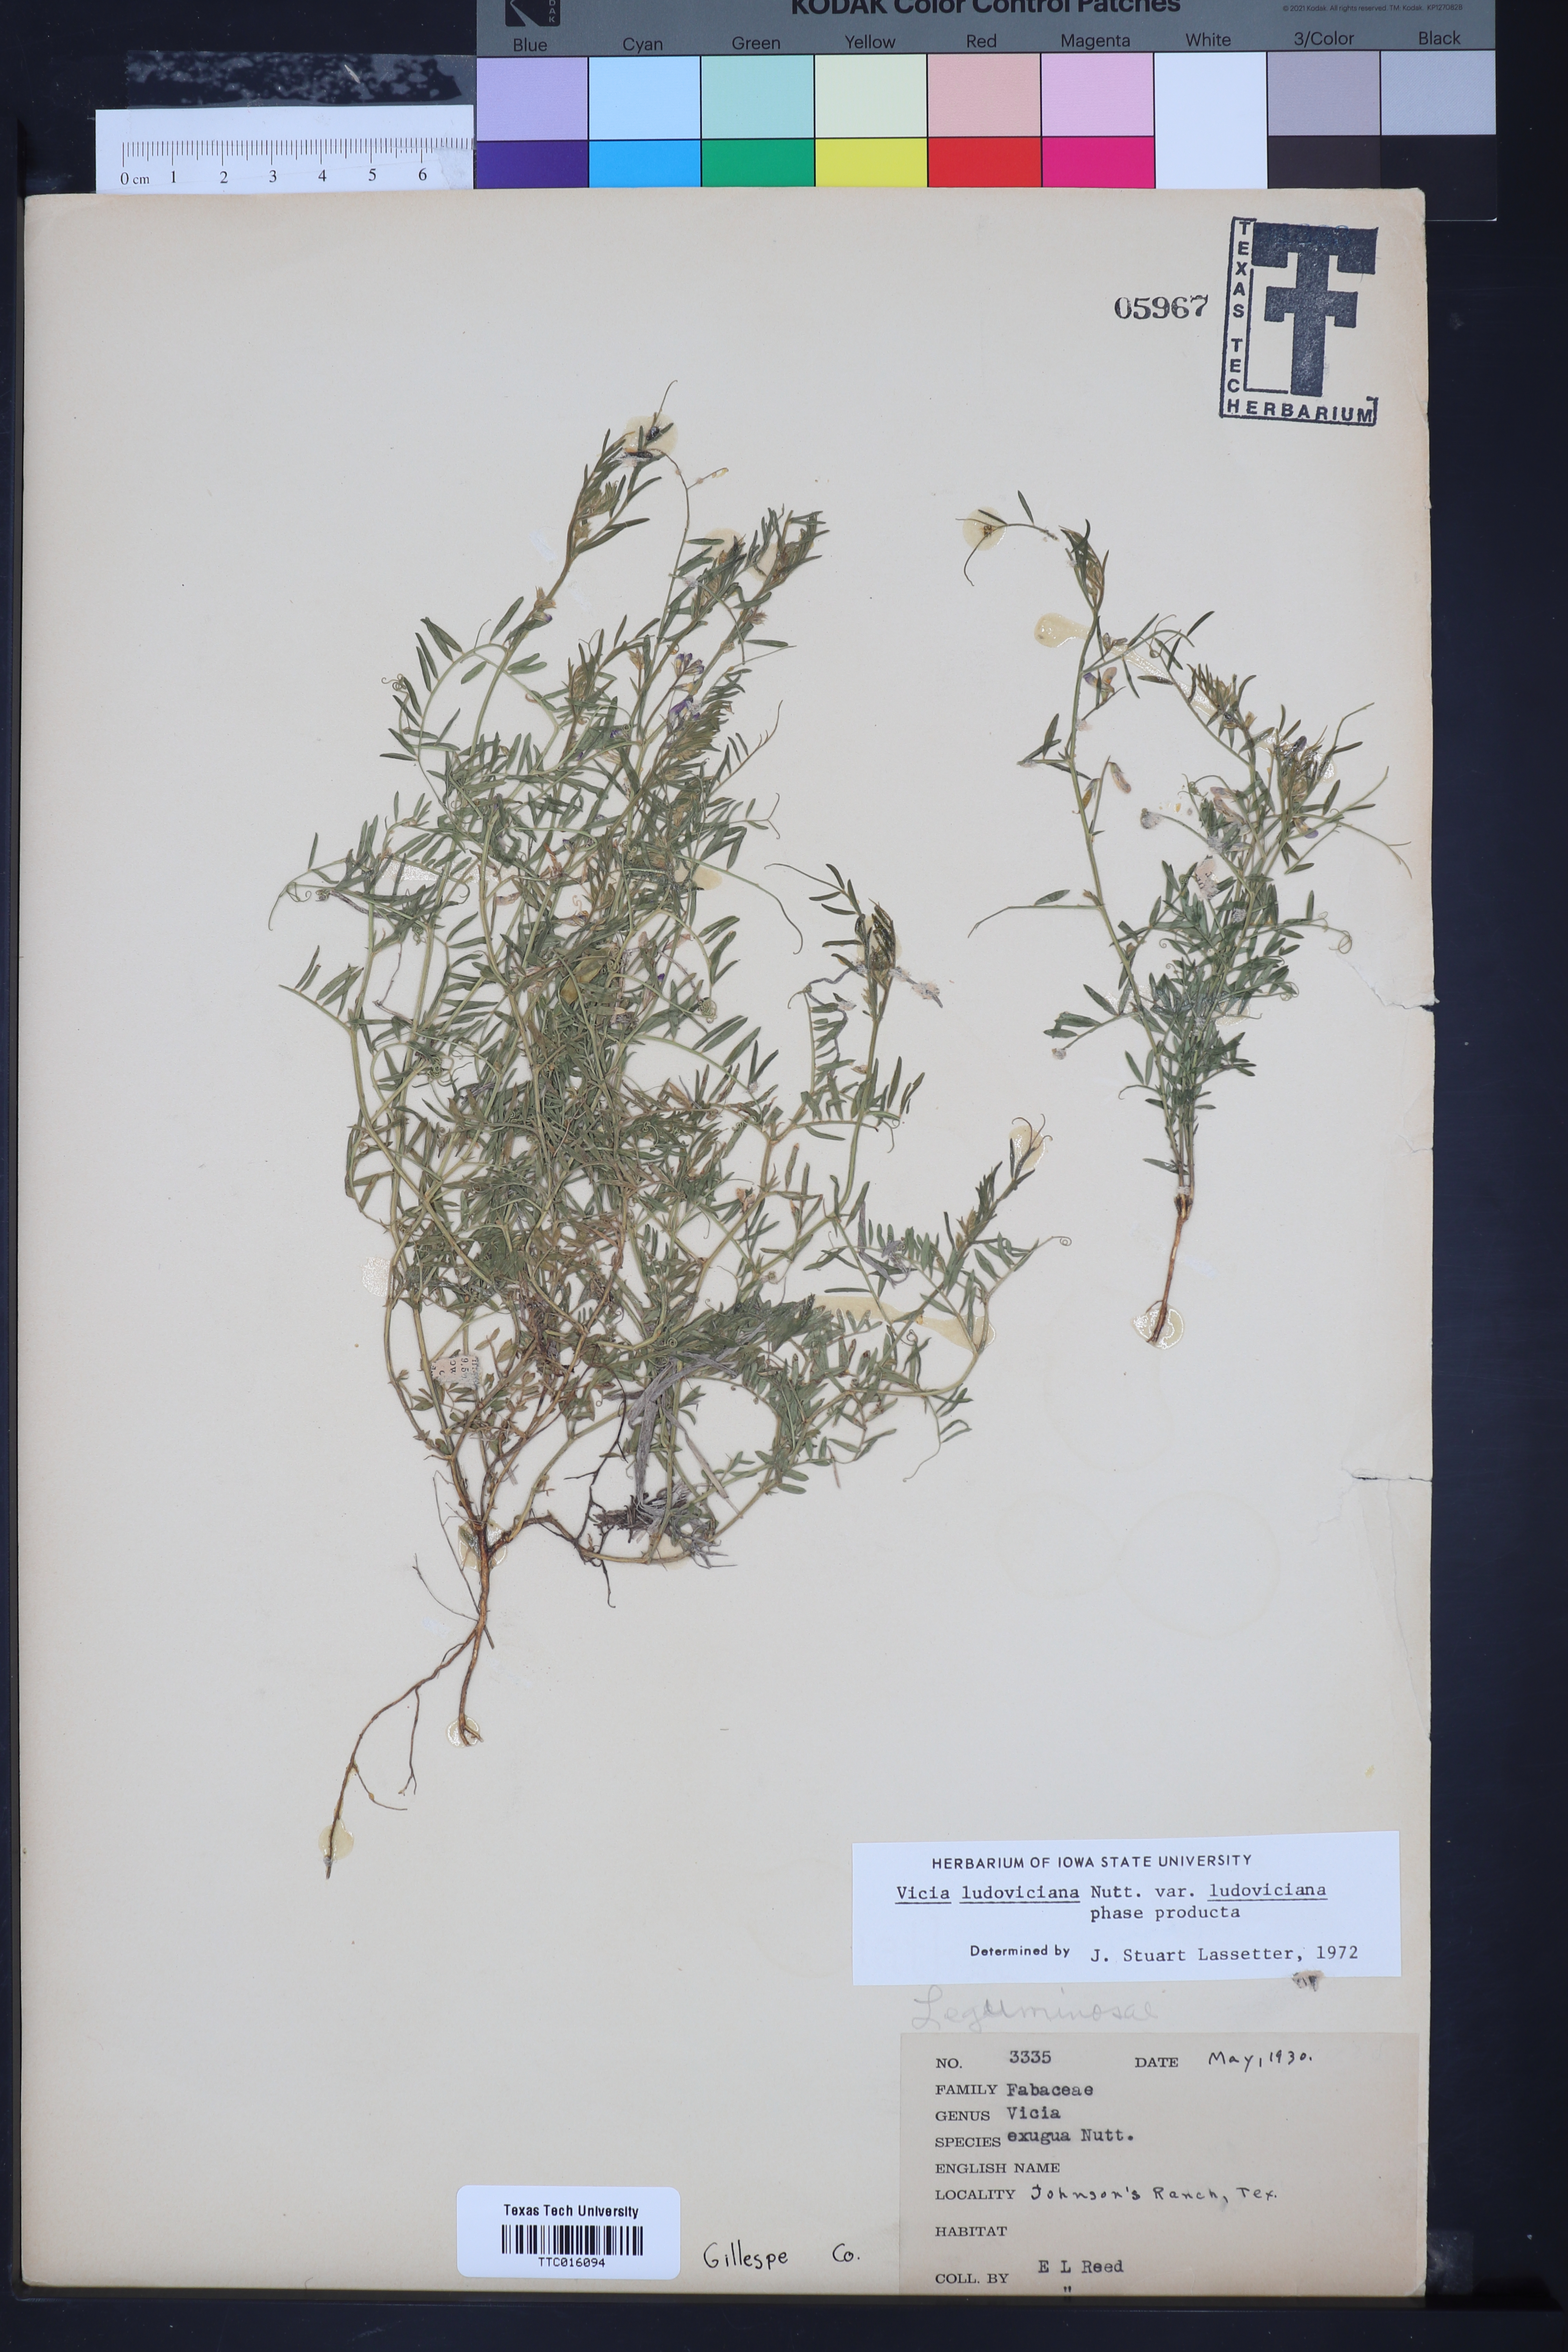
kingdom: Plantae
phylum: Tracheophyta
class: Magnoliopsida
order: Fabales
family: Fabaceae
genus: Vicia
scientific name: Vicia ludoviciana
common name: Louisiana vetch
